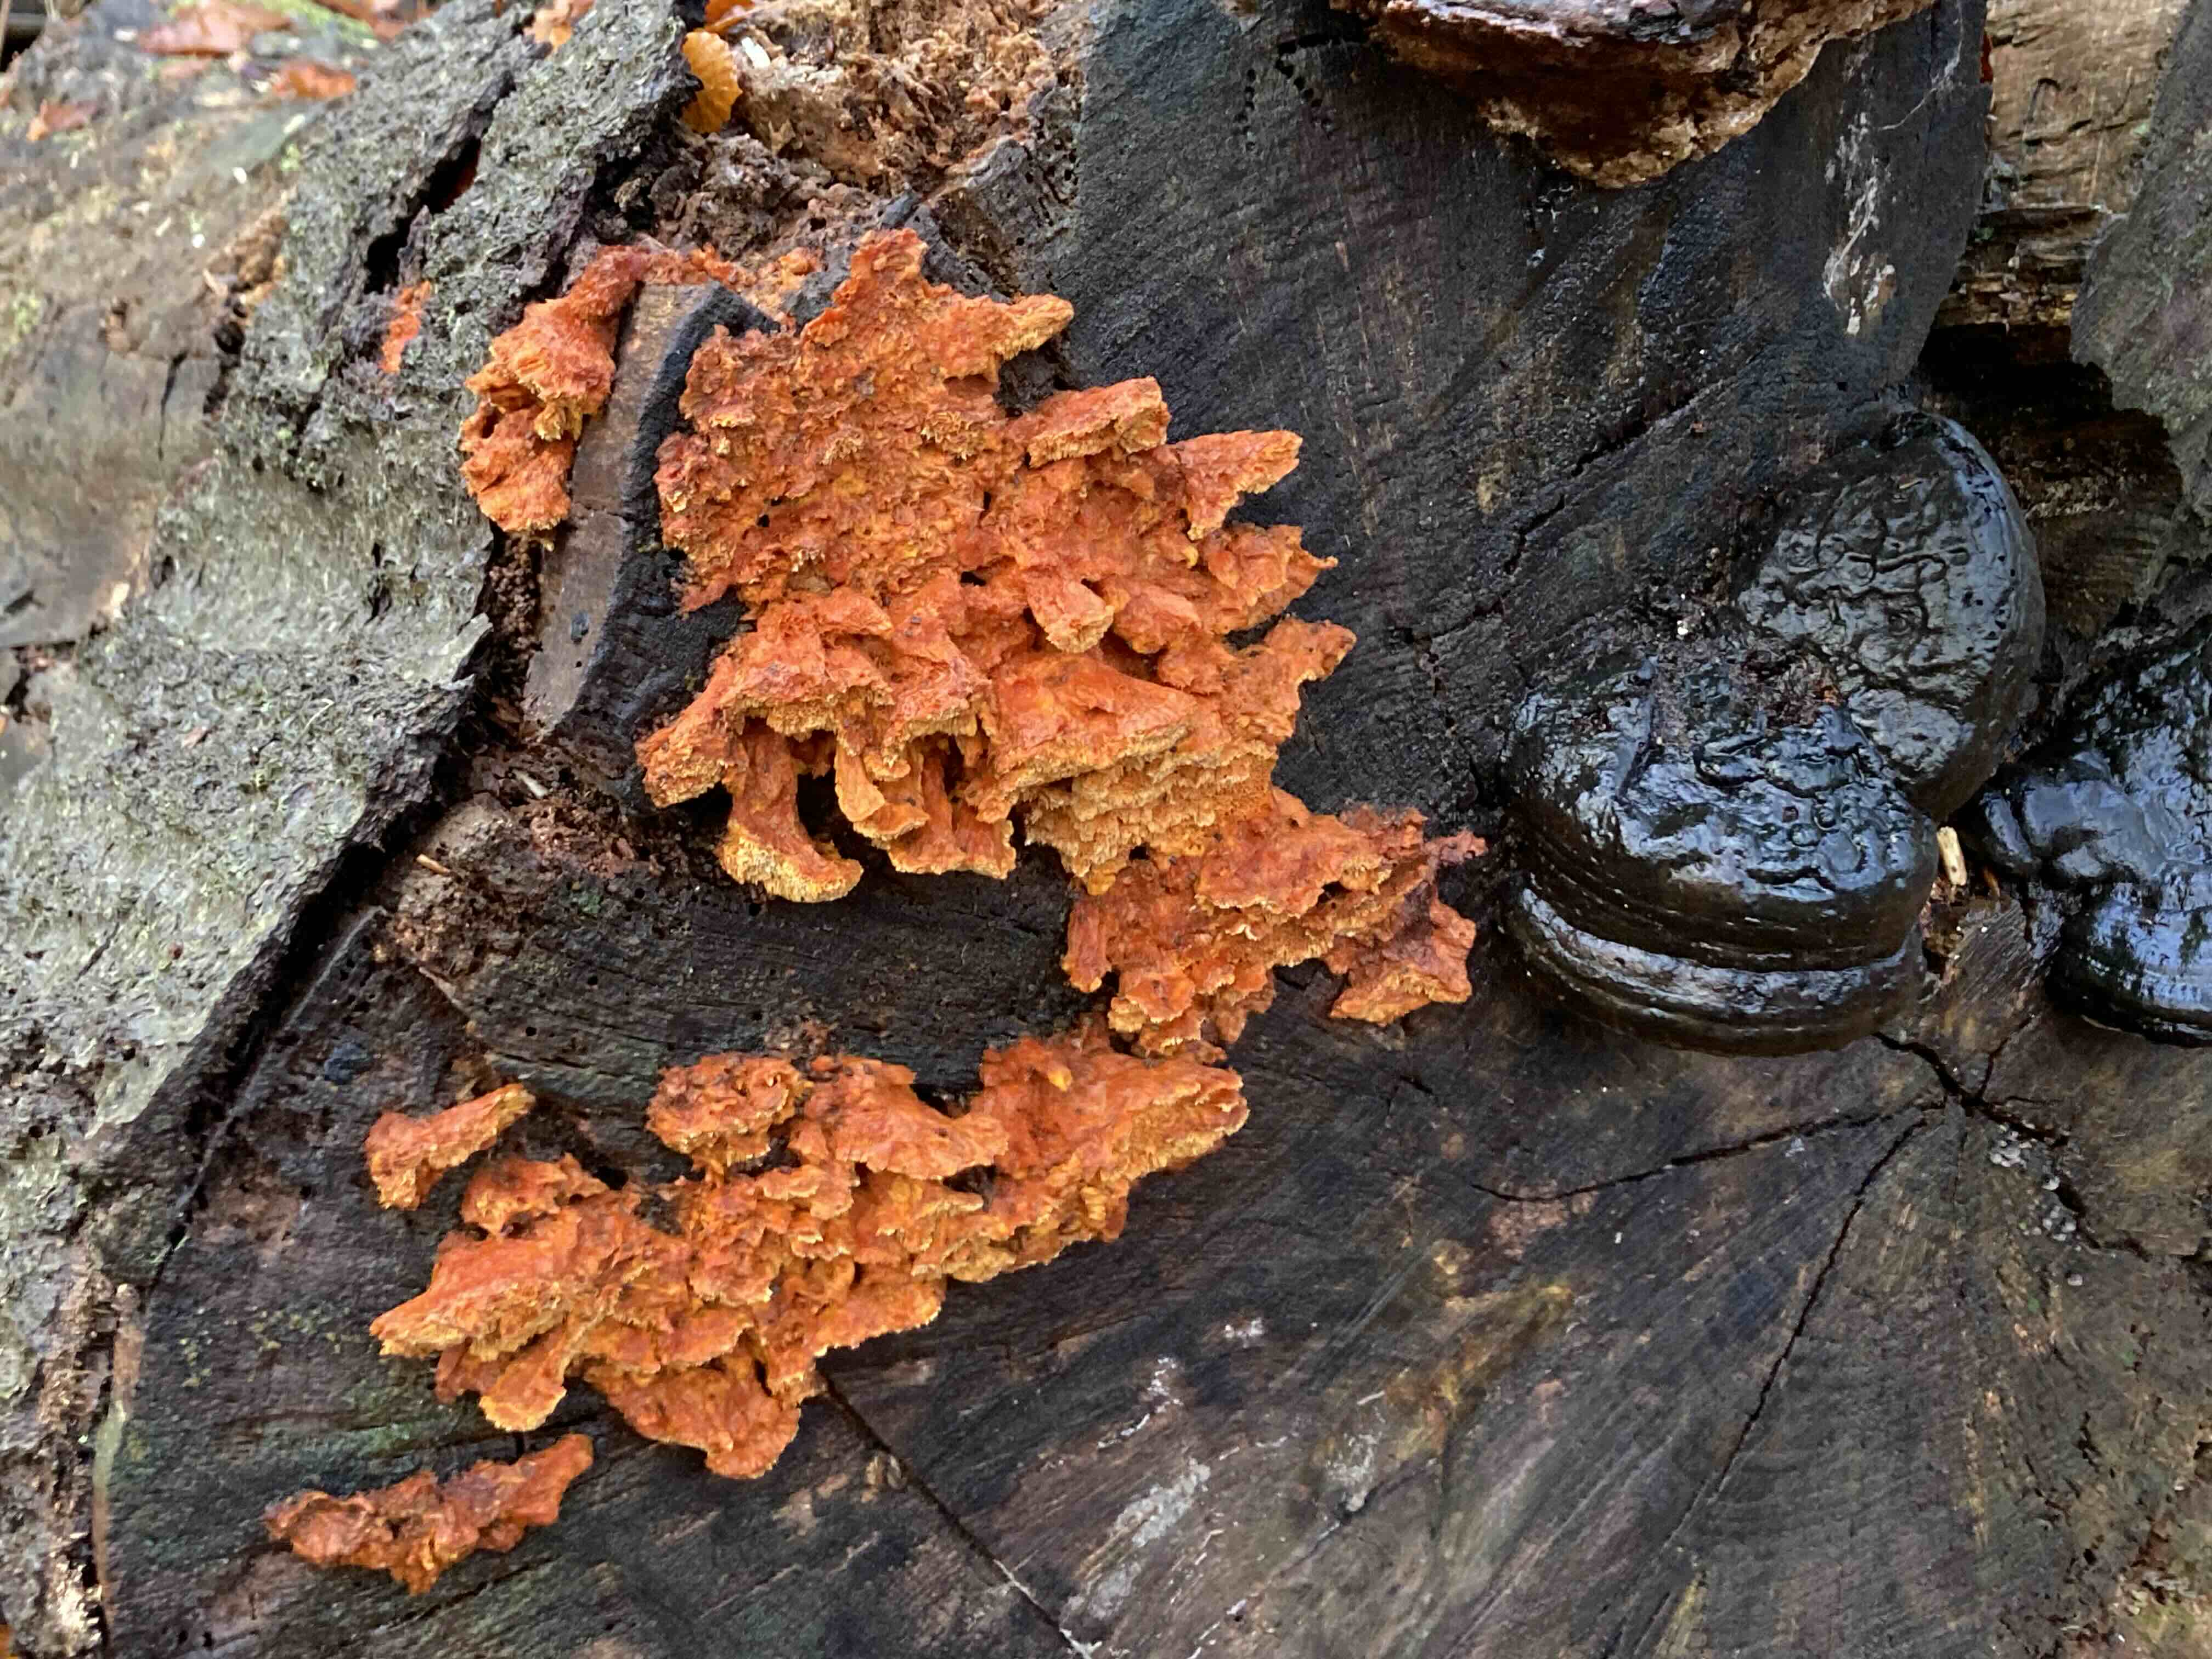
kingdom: Fungi
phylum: Basidiomycota
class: Agaricomycetes
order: Polyporales
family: Pycnoporellaceae
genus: Pycnoporellus
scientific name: Pycnoporellus fulgens
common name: flammeporesvamp
